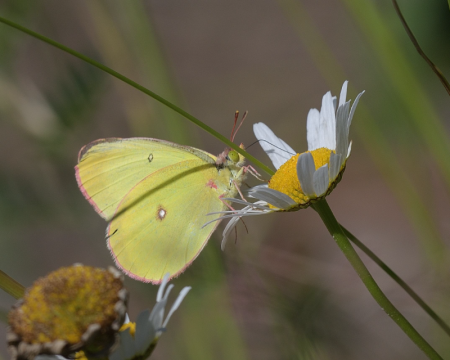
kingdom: Animalia
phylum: Arthropoda
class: Insecta
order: Lepidoptera
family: Pieridae
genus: Colias
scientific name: Colias interior
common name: Pink-edged Sulphur
